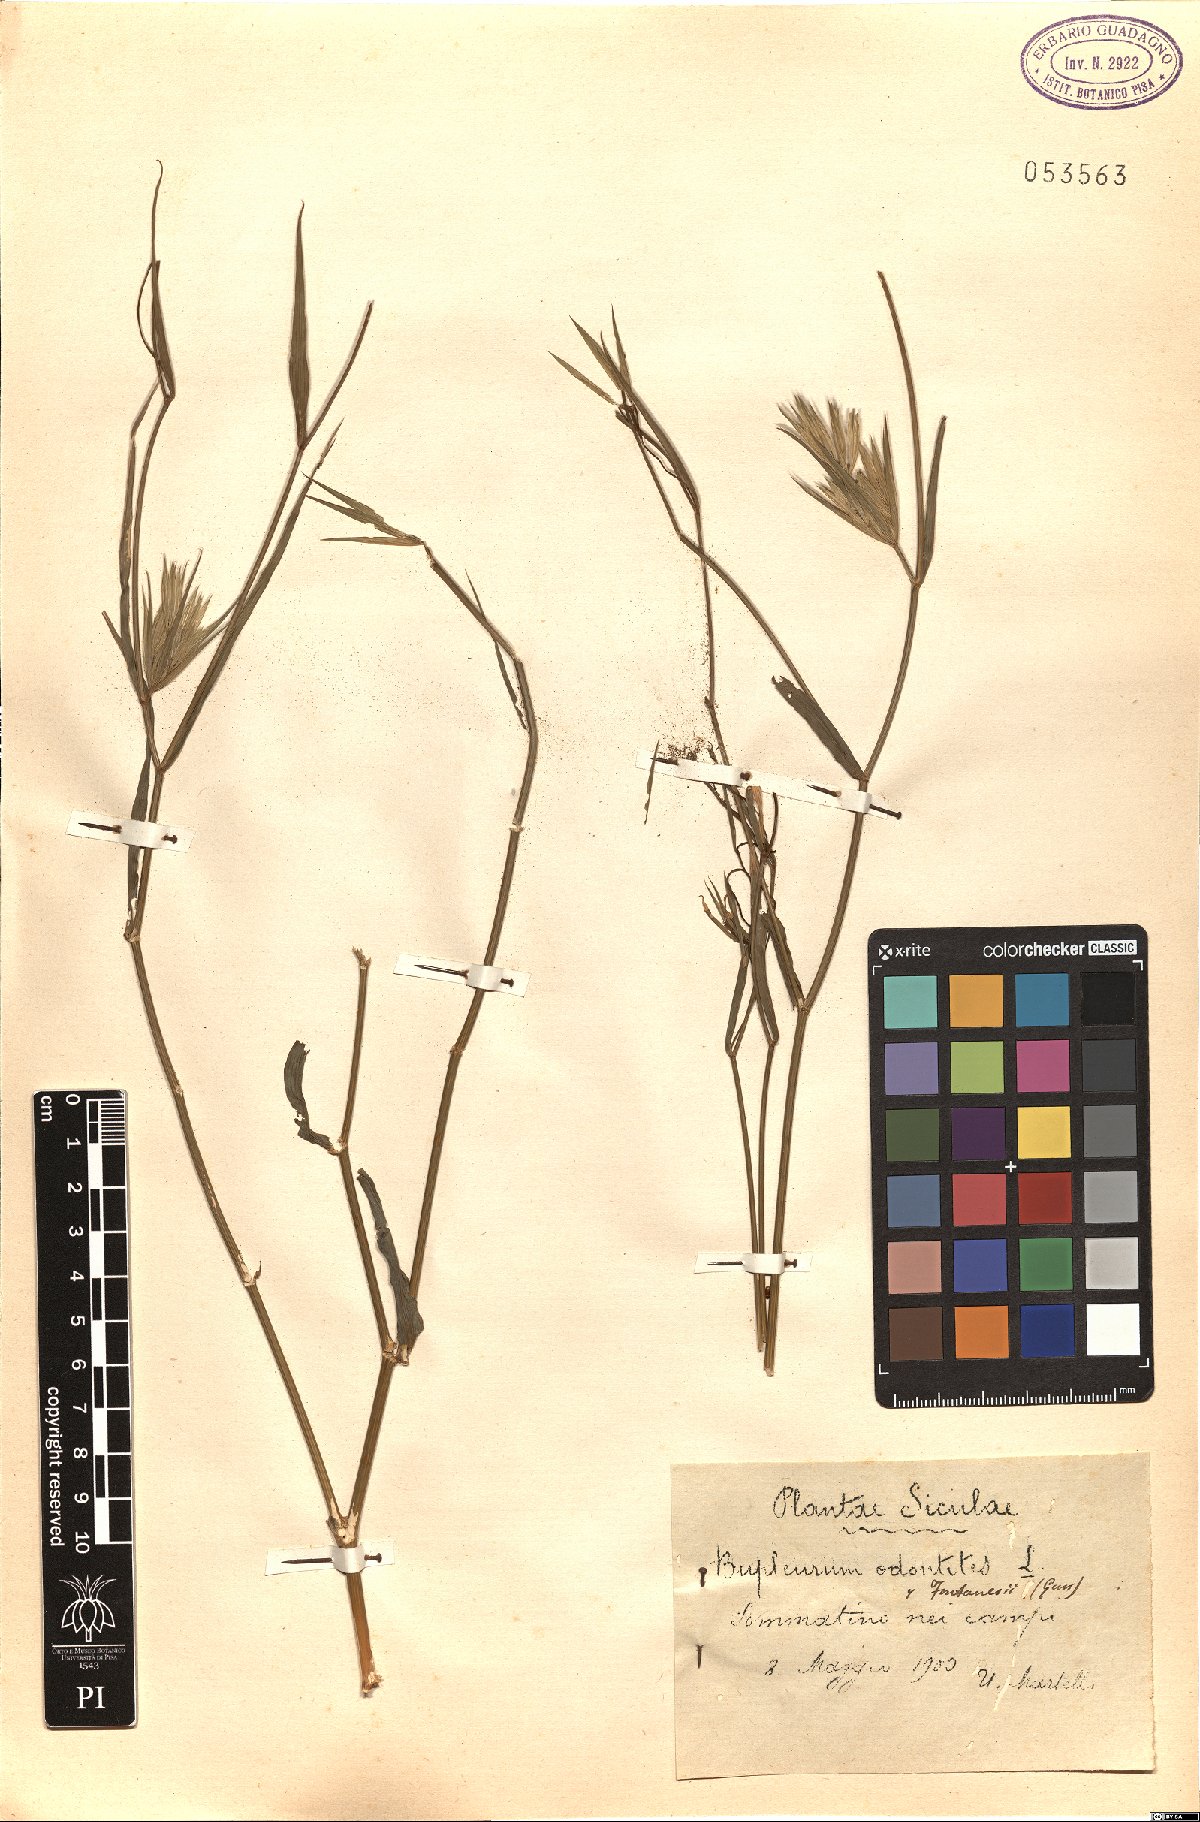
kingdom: Plantae
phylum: Tracheophyta
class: Magnoliopsida
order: Apiales
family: Apiaceae
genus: Bupleurum
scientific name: Bupleurum odontites
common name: Narrowleaf thorow wax
